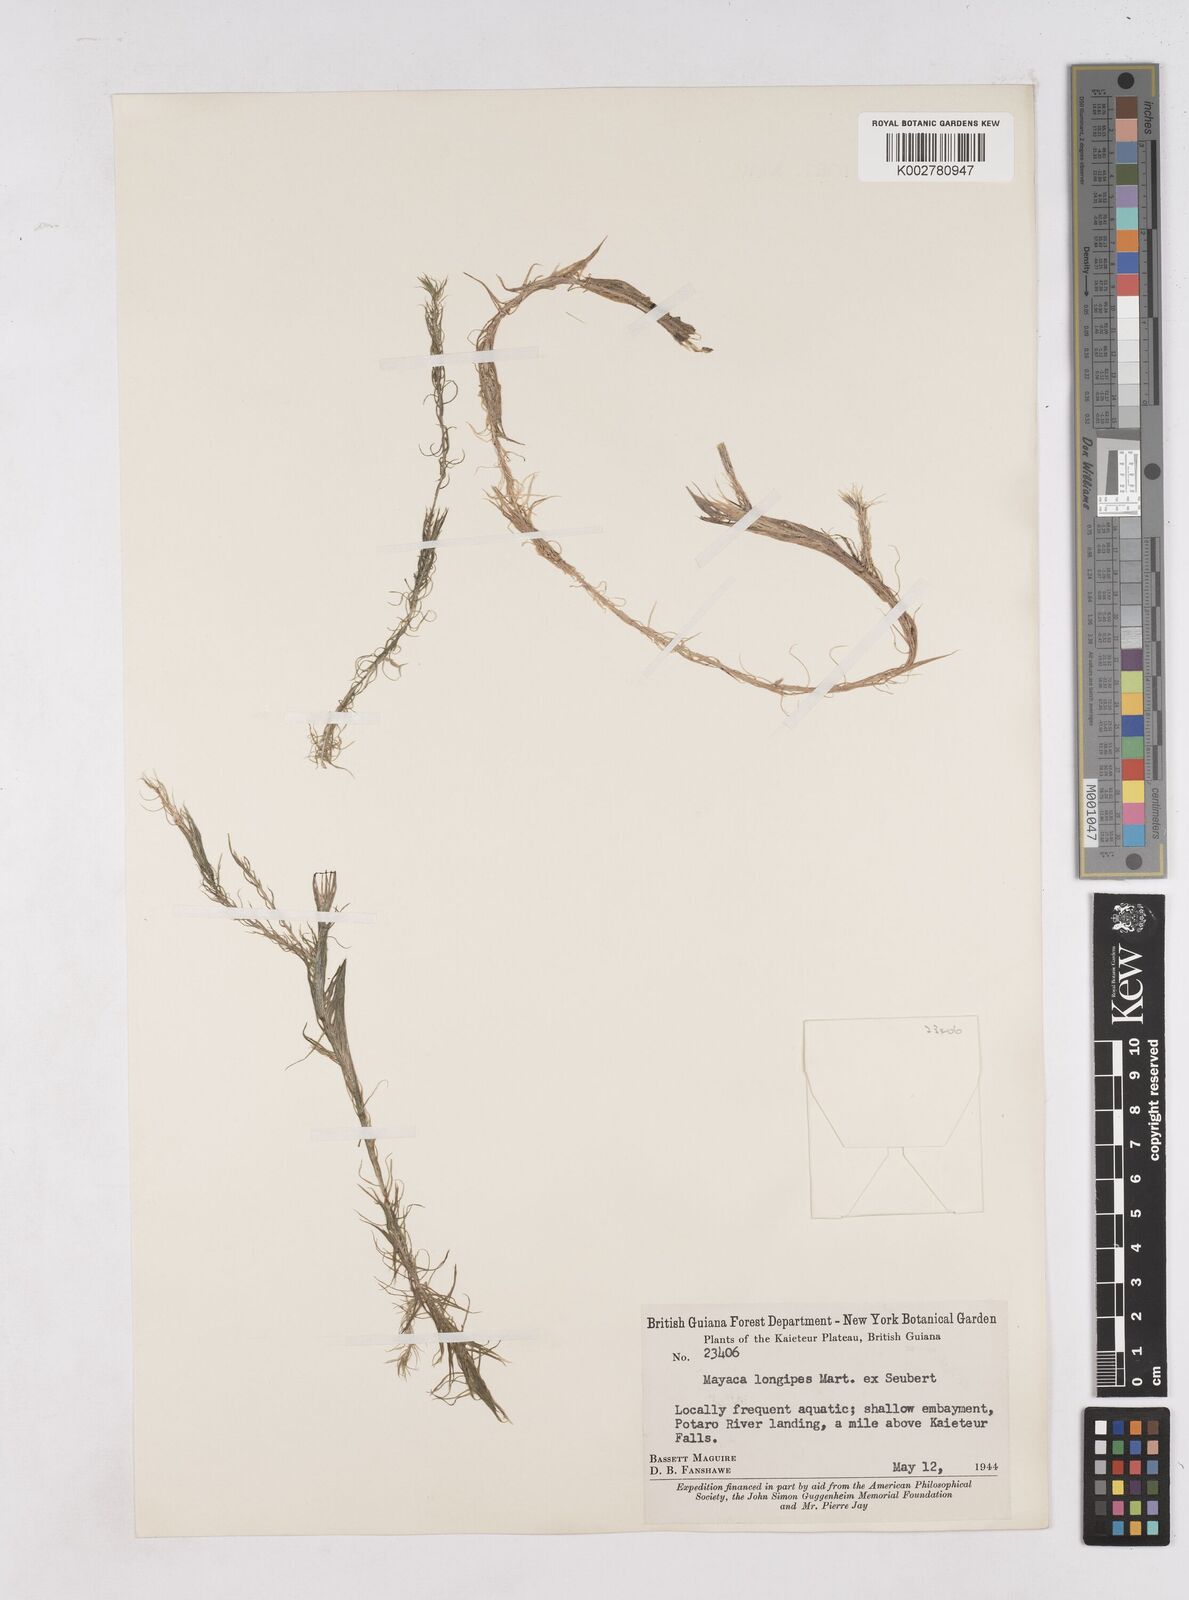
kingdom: Plantae
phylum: Tracheophyta
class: Liliopsida
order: Poales
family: Mayacaceae
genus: Mayaca
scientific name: Mayaca fluviatilis
